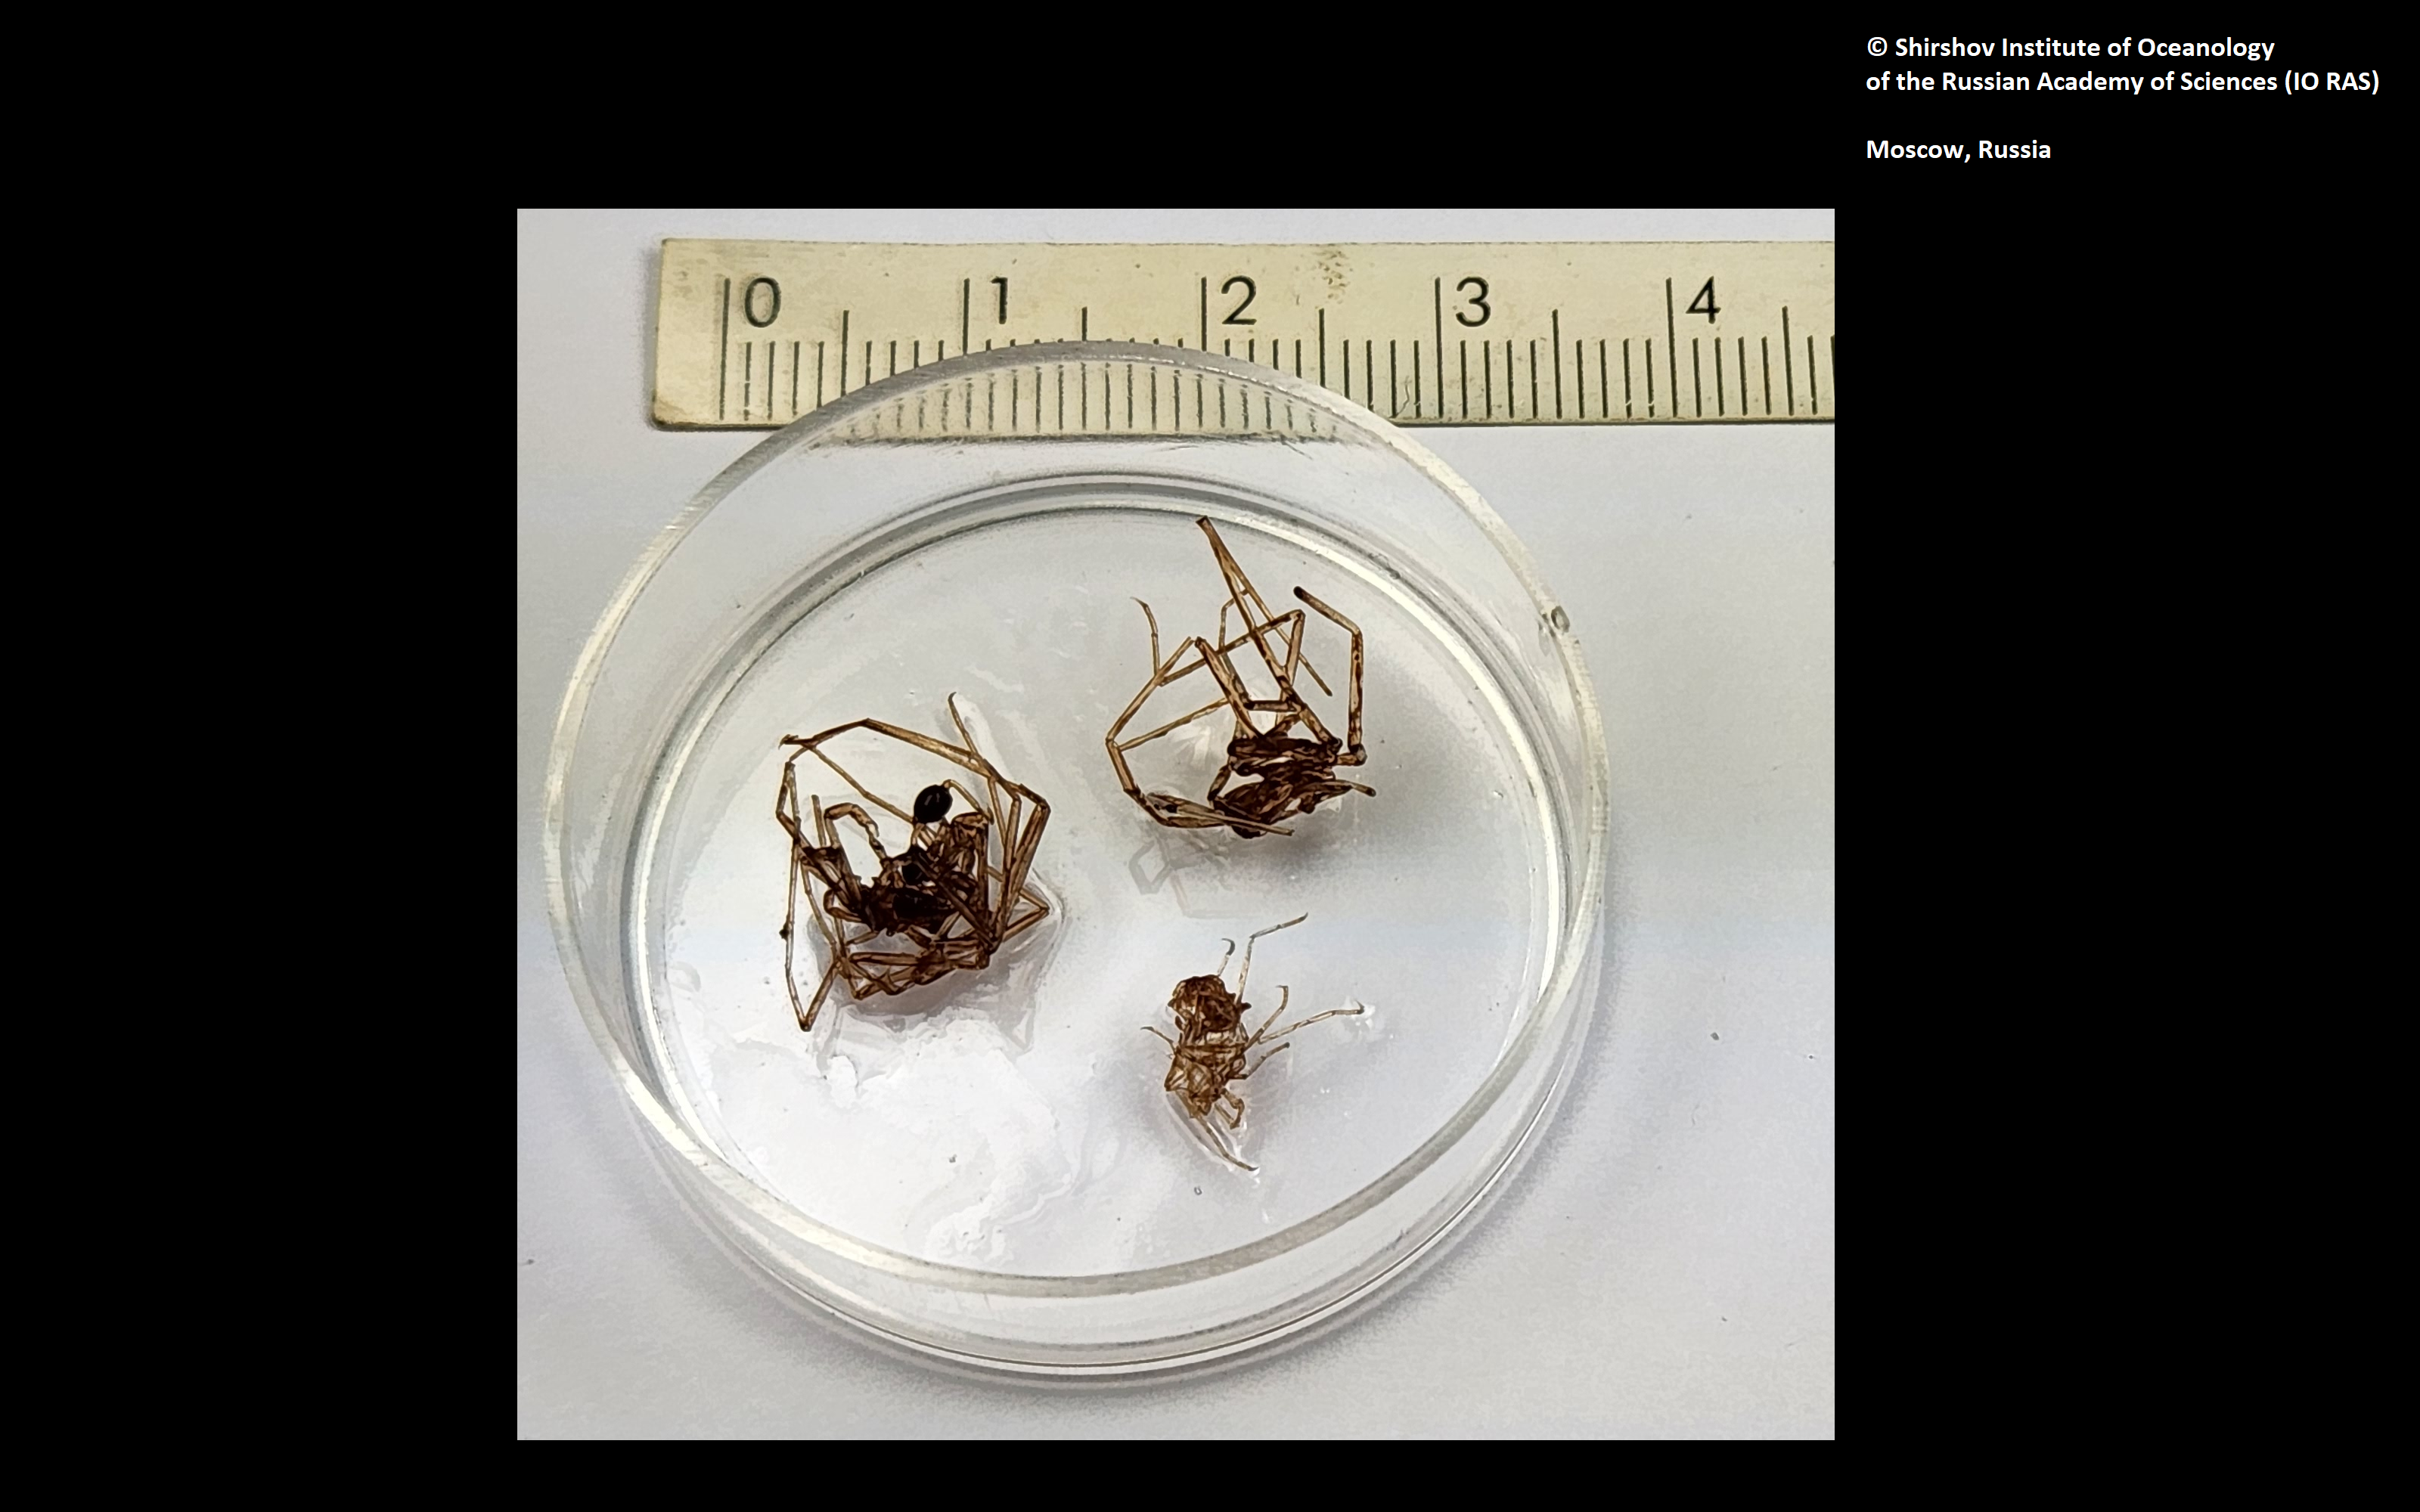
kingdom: Animalia
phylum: Arthropoda
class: Pycnogonida
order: Pantopoda
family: Nymphonidae
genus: Nymphon
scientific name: Nymphon grossipes
